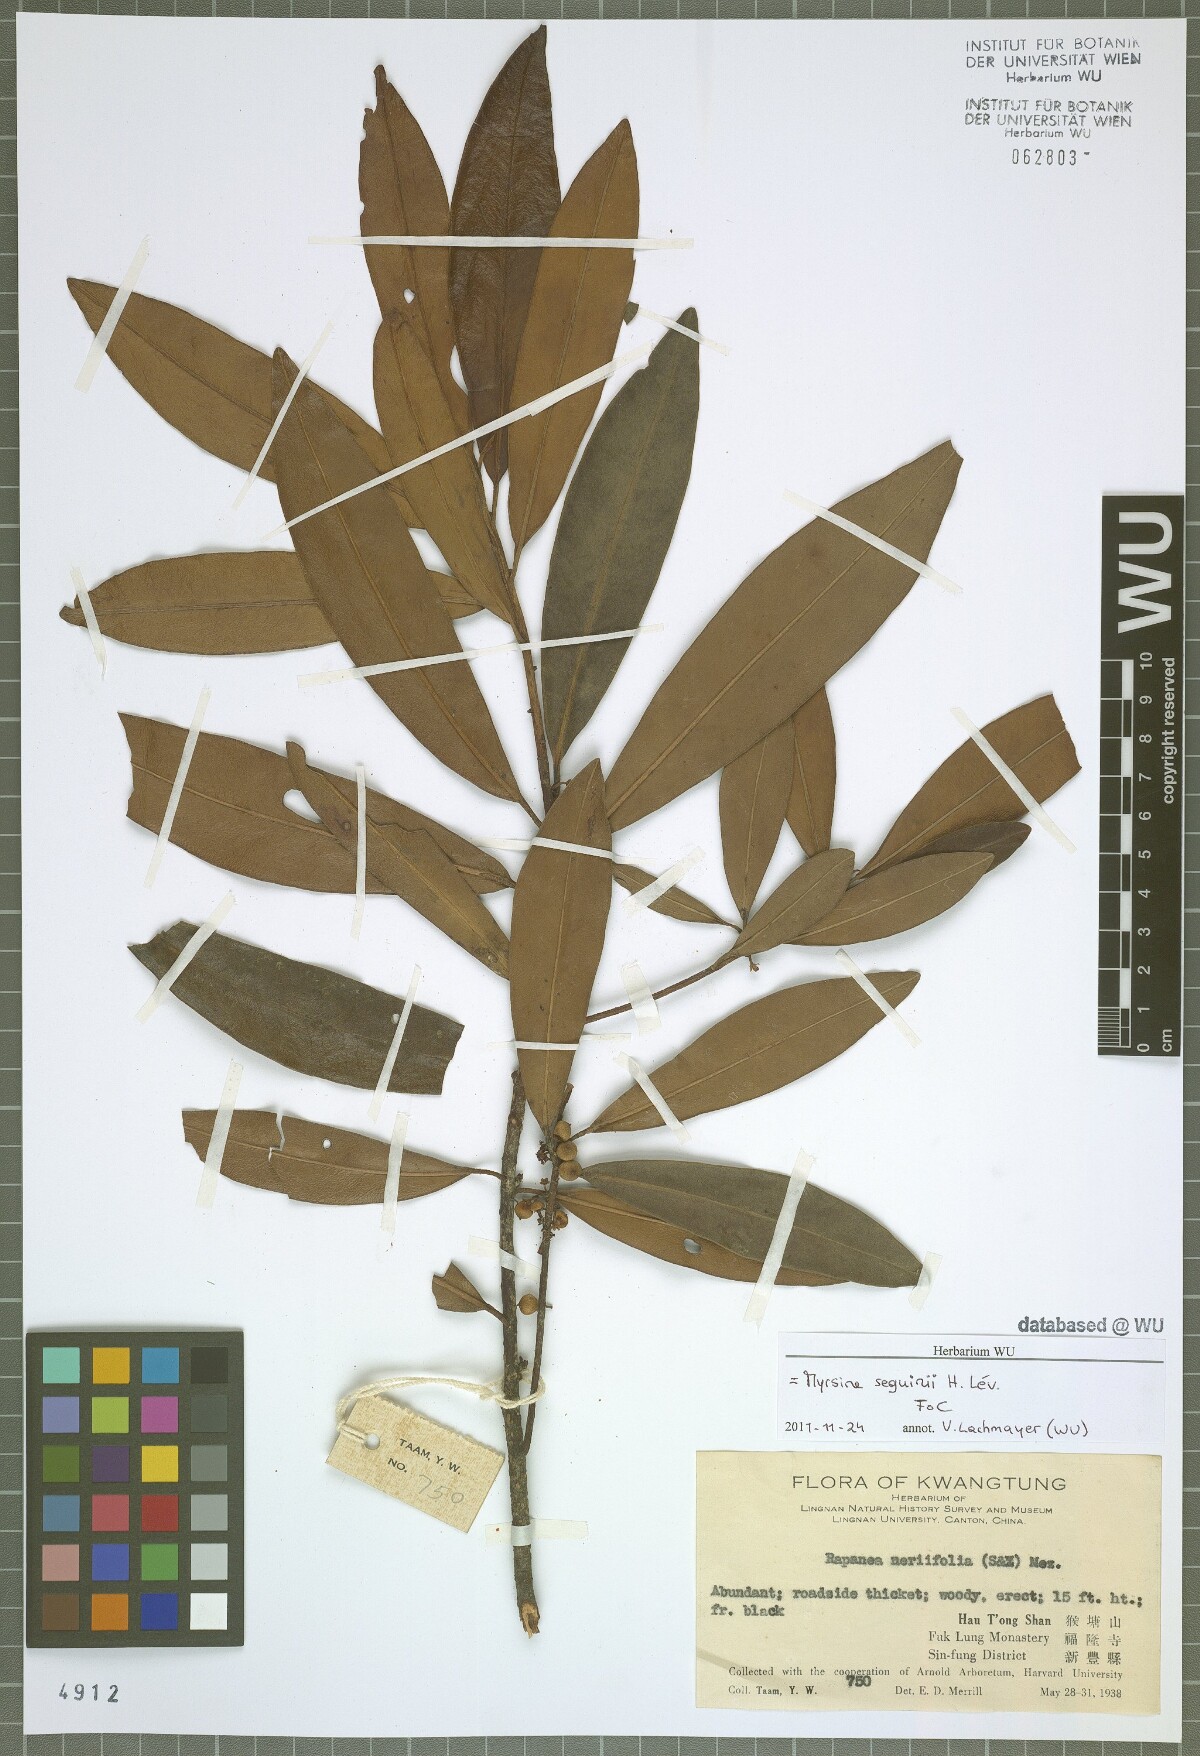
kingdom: Plantae
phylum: Tracheophyta
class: Magnoliopsida
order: Ericales
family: Primulaceae
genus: Myrsine
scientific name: Myrsine seguinii
